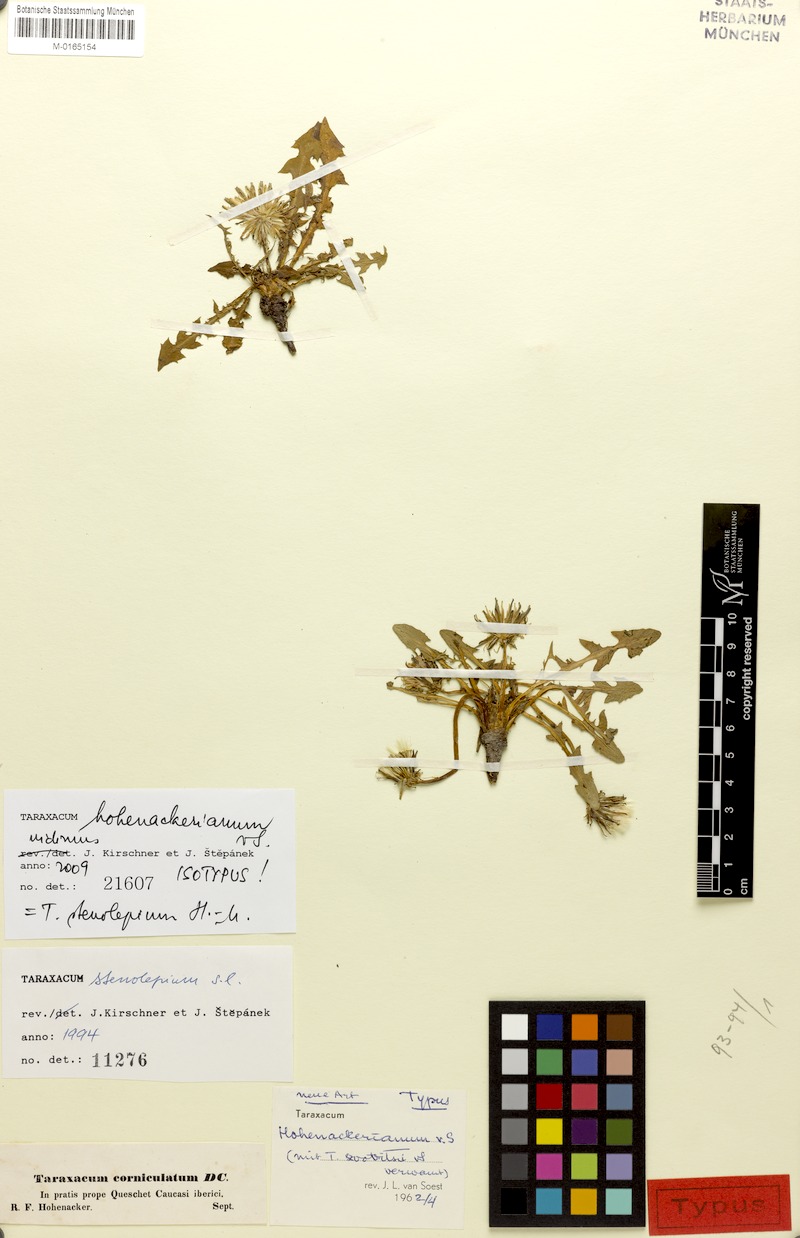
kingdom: Plantae
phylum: Tracheophyta
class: Magnoliopsida
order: Asterales
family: Asteraceae
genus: Taraxacum
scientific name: Taraxacum stenocephalum
